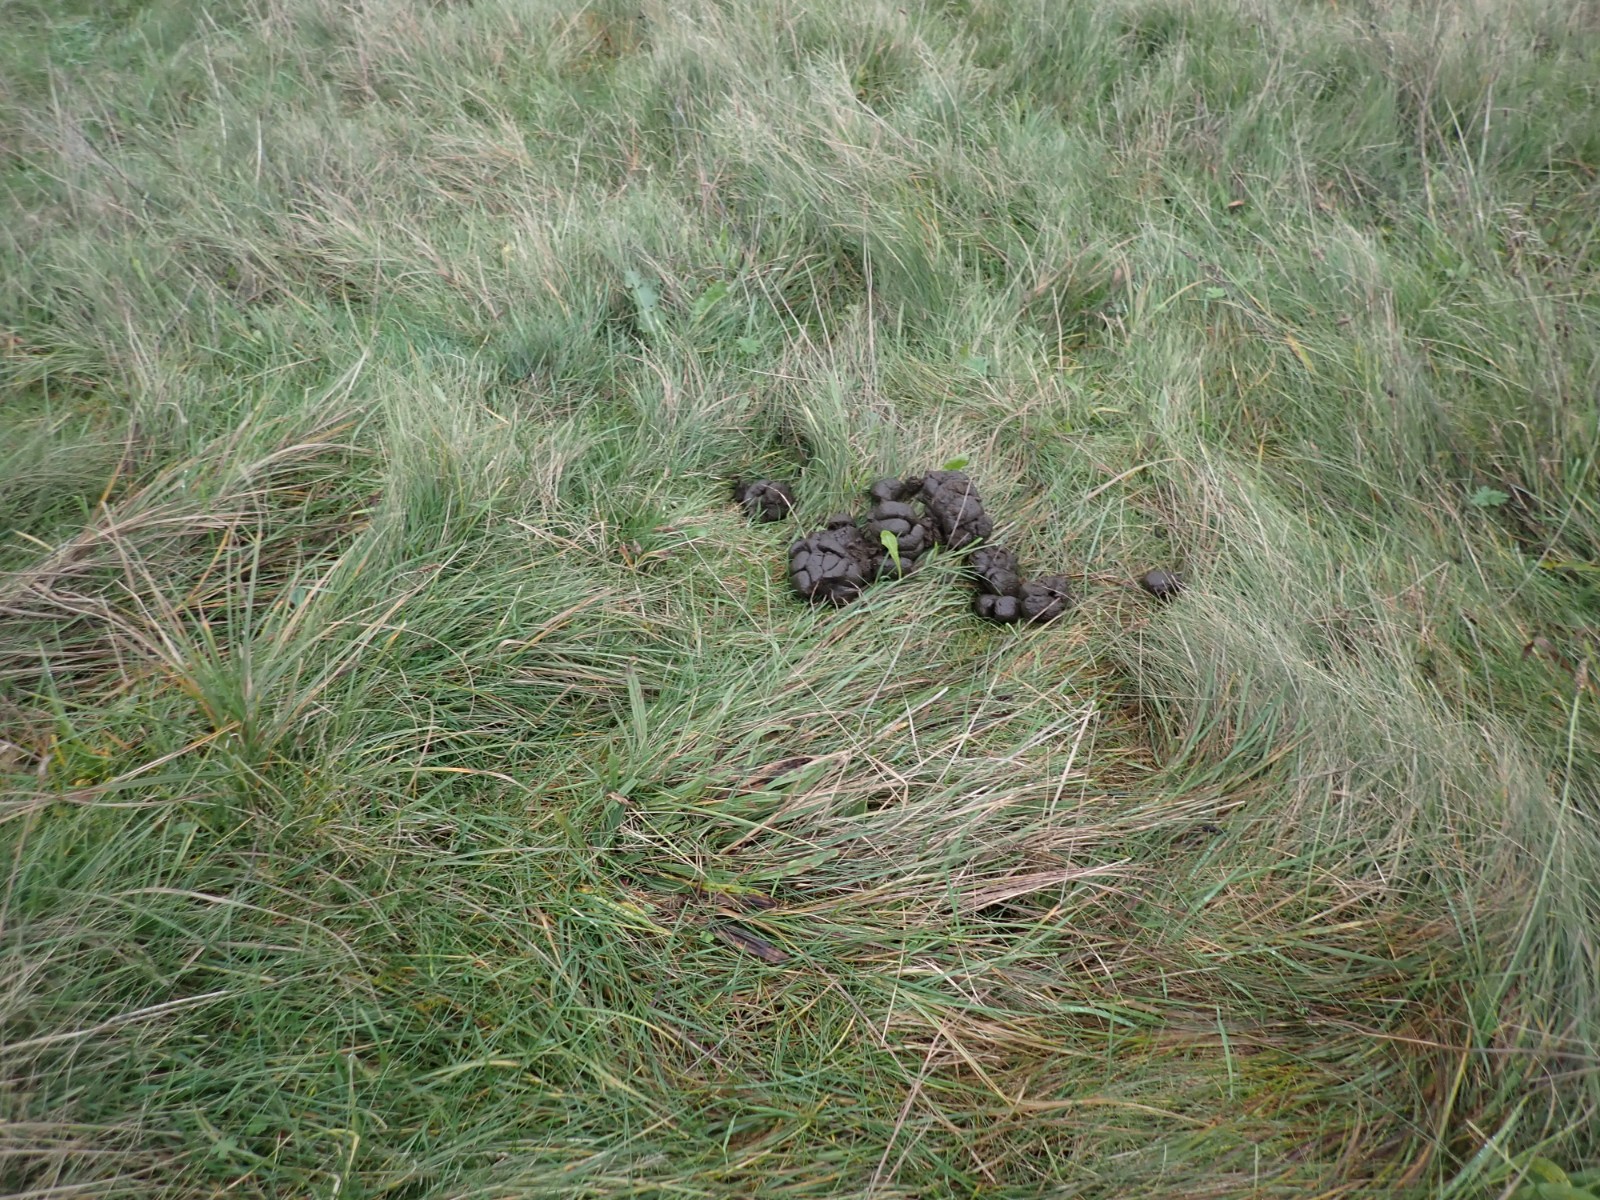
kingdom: Fungi
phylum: Basidiomycota
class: Agaricomycetes
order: Agaricales
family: Hygrophoraceae
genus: Hygrocybe
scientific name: Hygrocybe punicea
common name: skarlagen-vokshat
